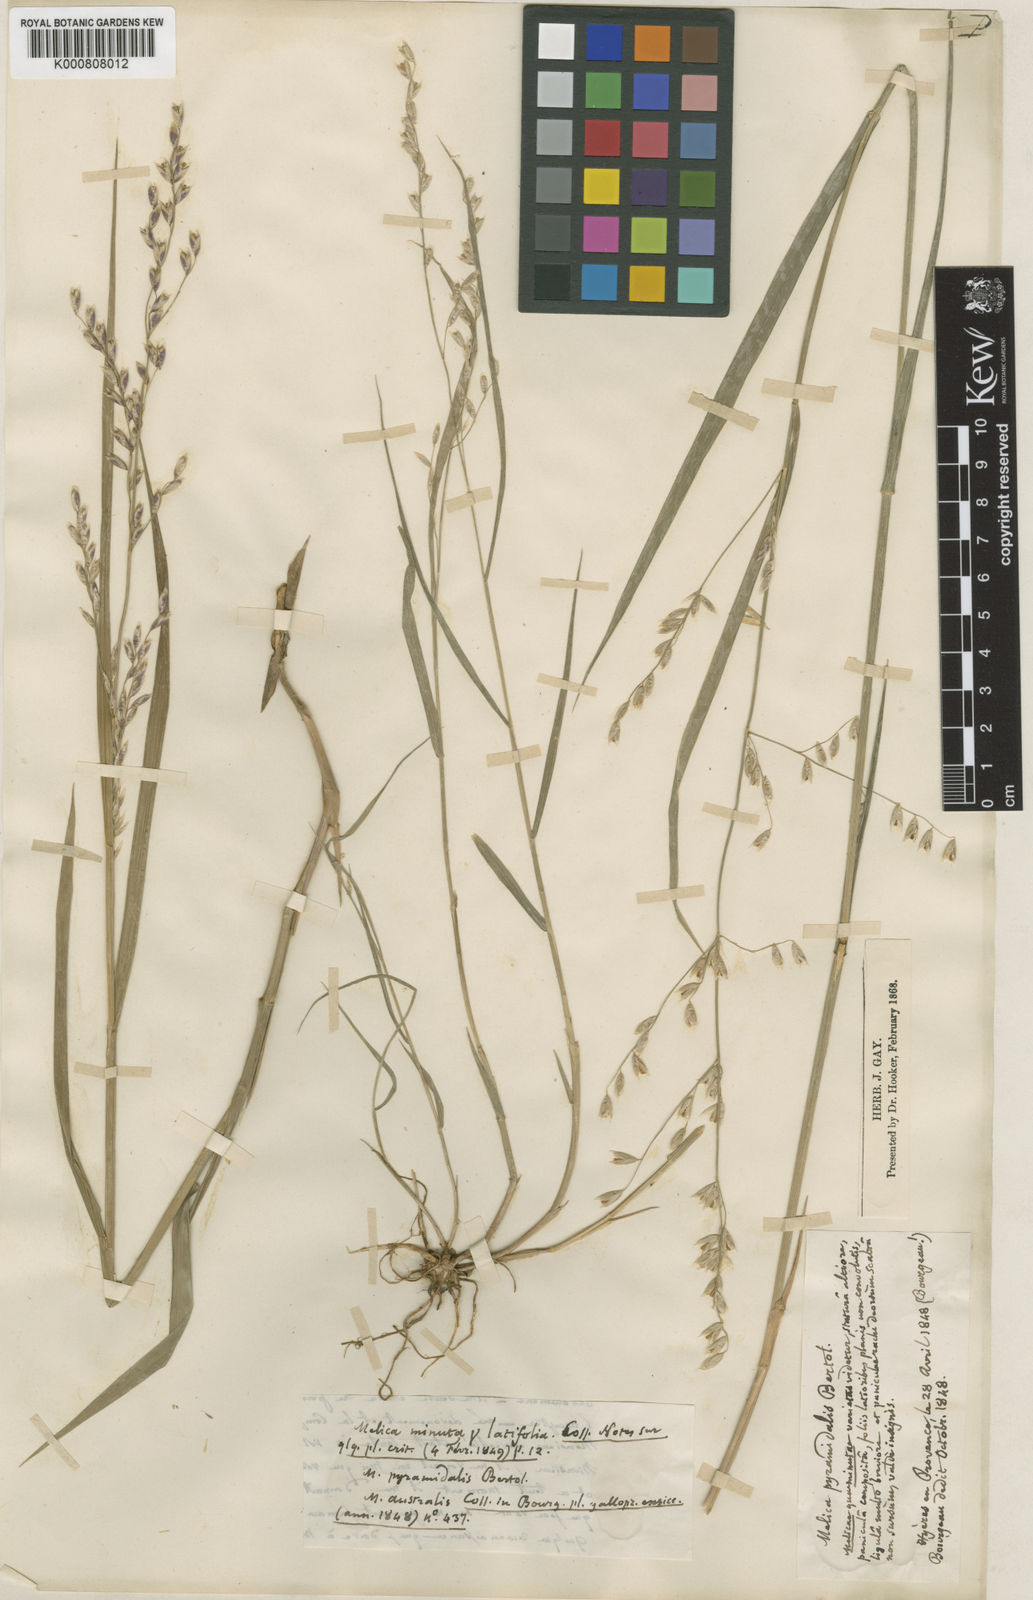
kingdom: Plantae
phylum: Tracheophyta
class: Liliopsida
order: Poales
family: Poaceae
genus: Melica
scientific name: Melica minuta
